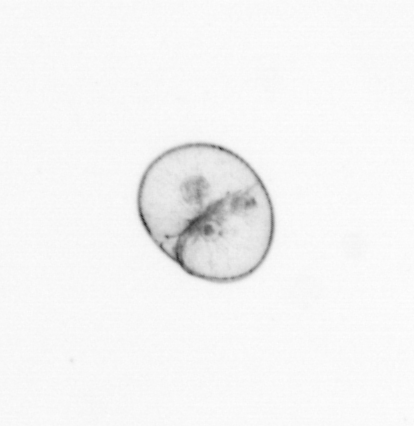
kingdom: Chromista
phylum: Myzozoa
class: Dinophyceae
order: Noctilucales
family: Noctilucaceae
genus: Noctiluca
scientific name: Noctiluca scintillans
